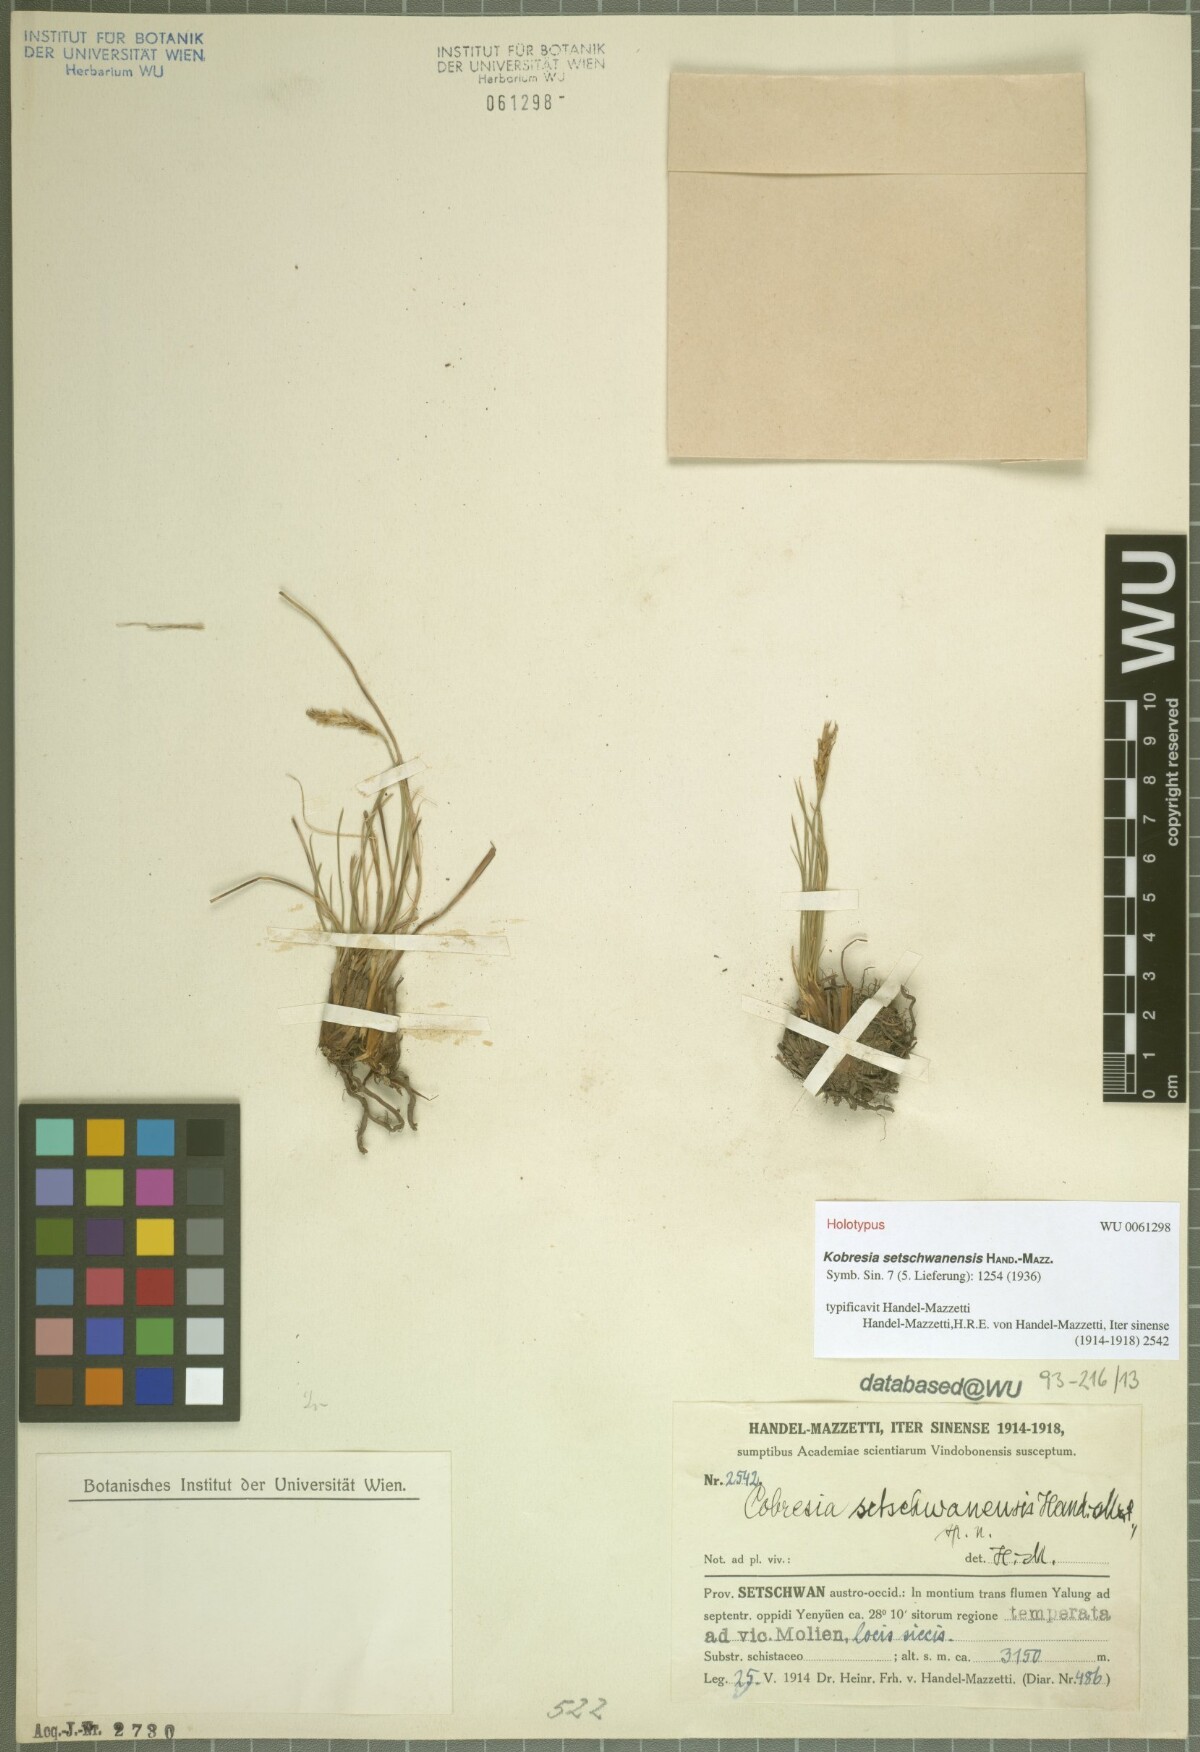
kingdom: Plantae
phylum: Tracheophyta
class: Liliopsida
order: Poales
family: Cyperaceae
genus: Carex
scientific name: Carex setschwanensis
